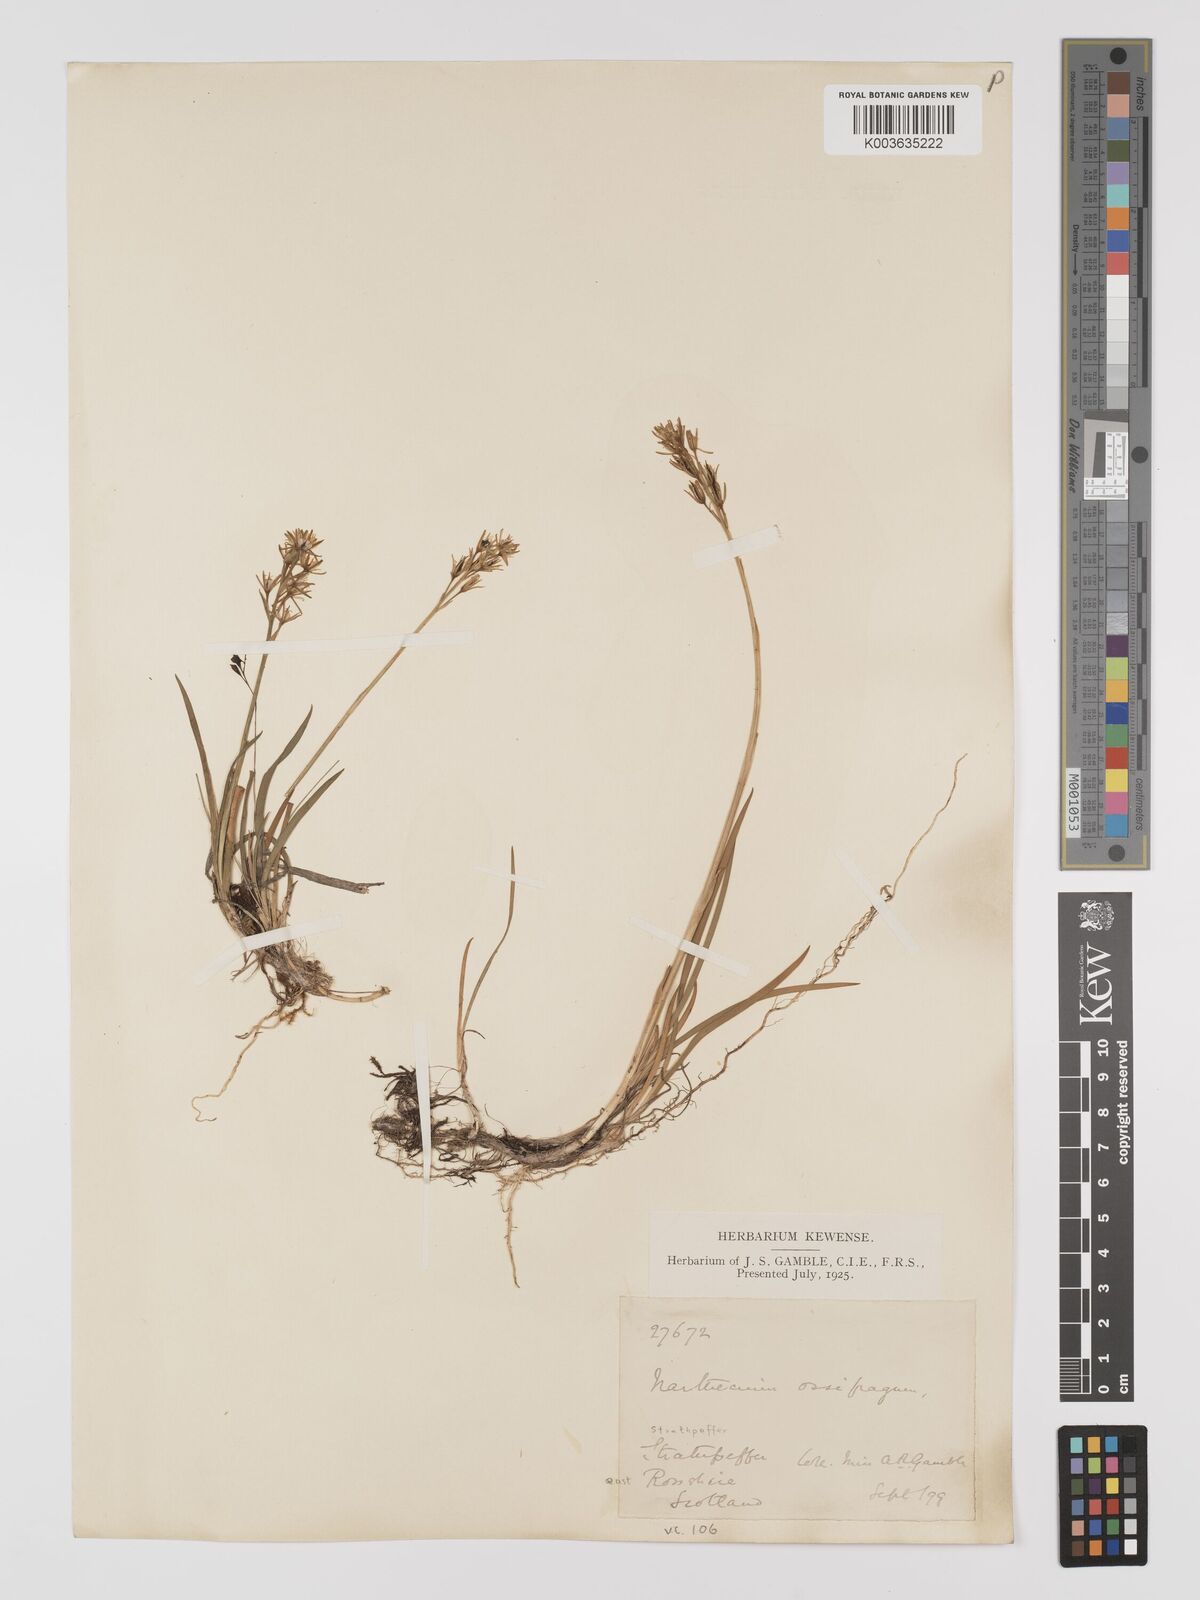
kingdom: Plantae
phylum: Tracheophyta
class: Liliopsida
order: Dioscoreales
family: Nartheciaceae
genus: Narthecium
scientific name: Narthecium
